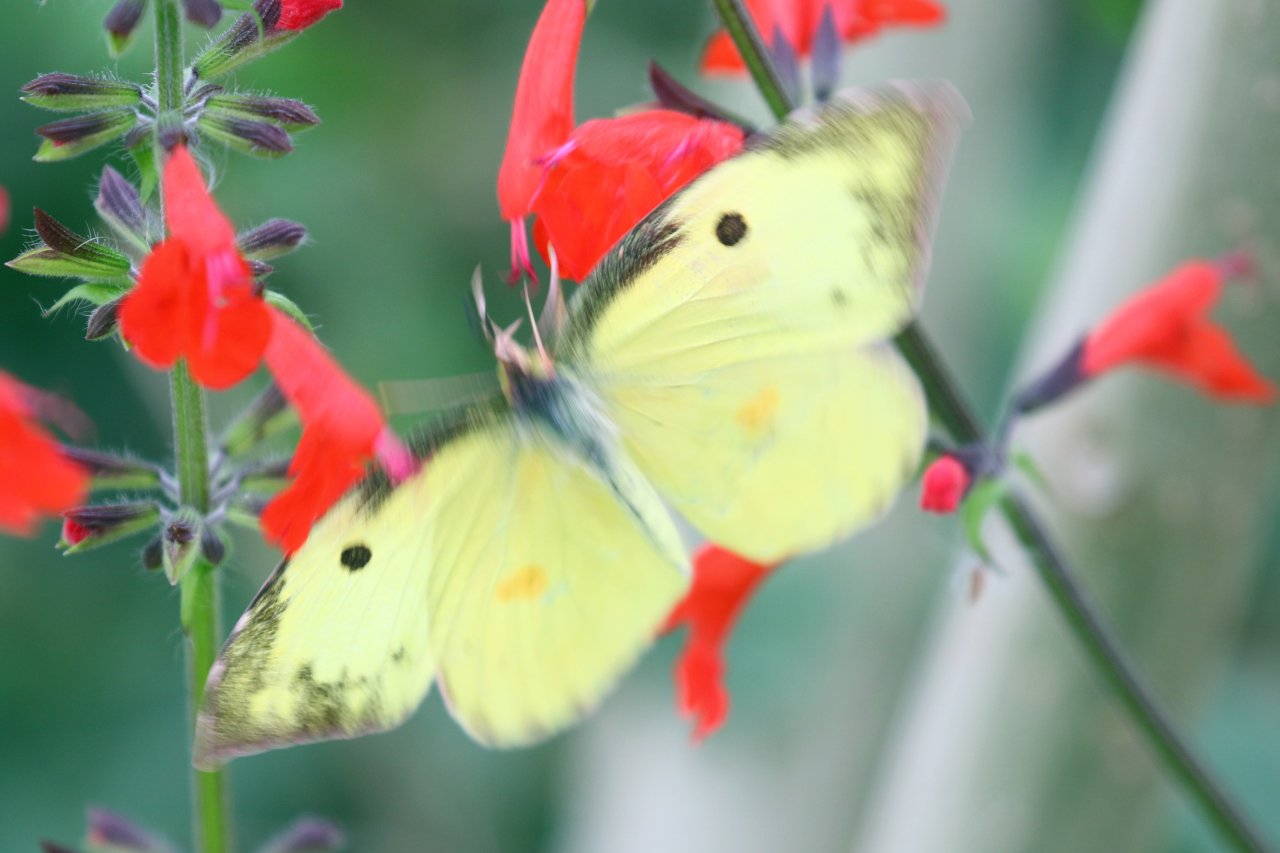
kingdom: Animalia
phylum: Arthropoda
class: Insecta
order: Lepidoptera
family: Pieridae
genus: Zerene
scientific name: Zerene cesonia
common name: Southern Dogface
